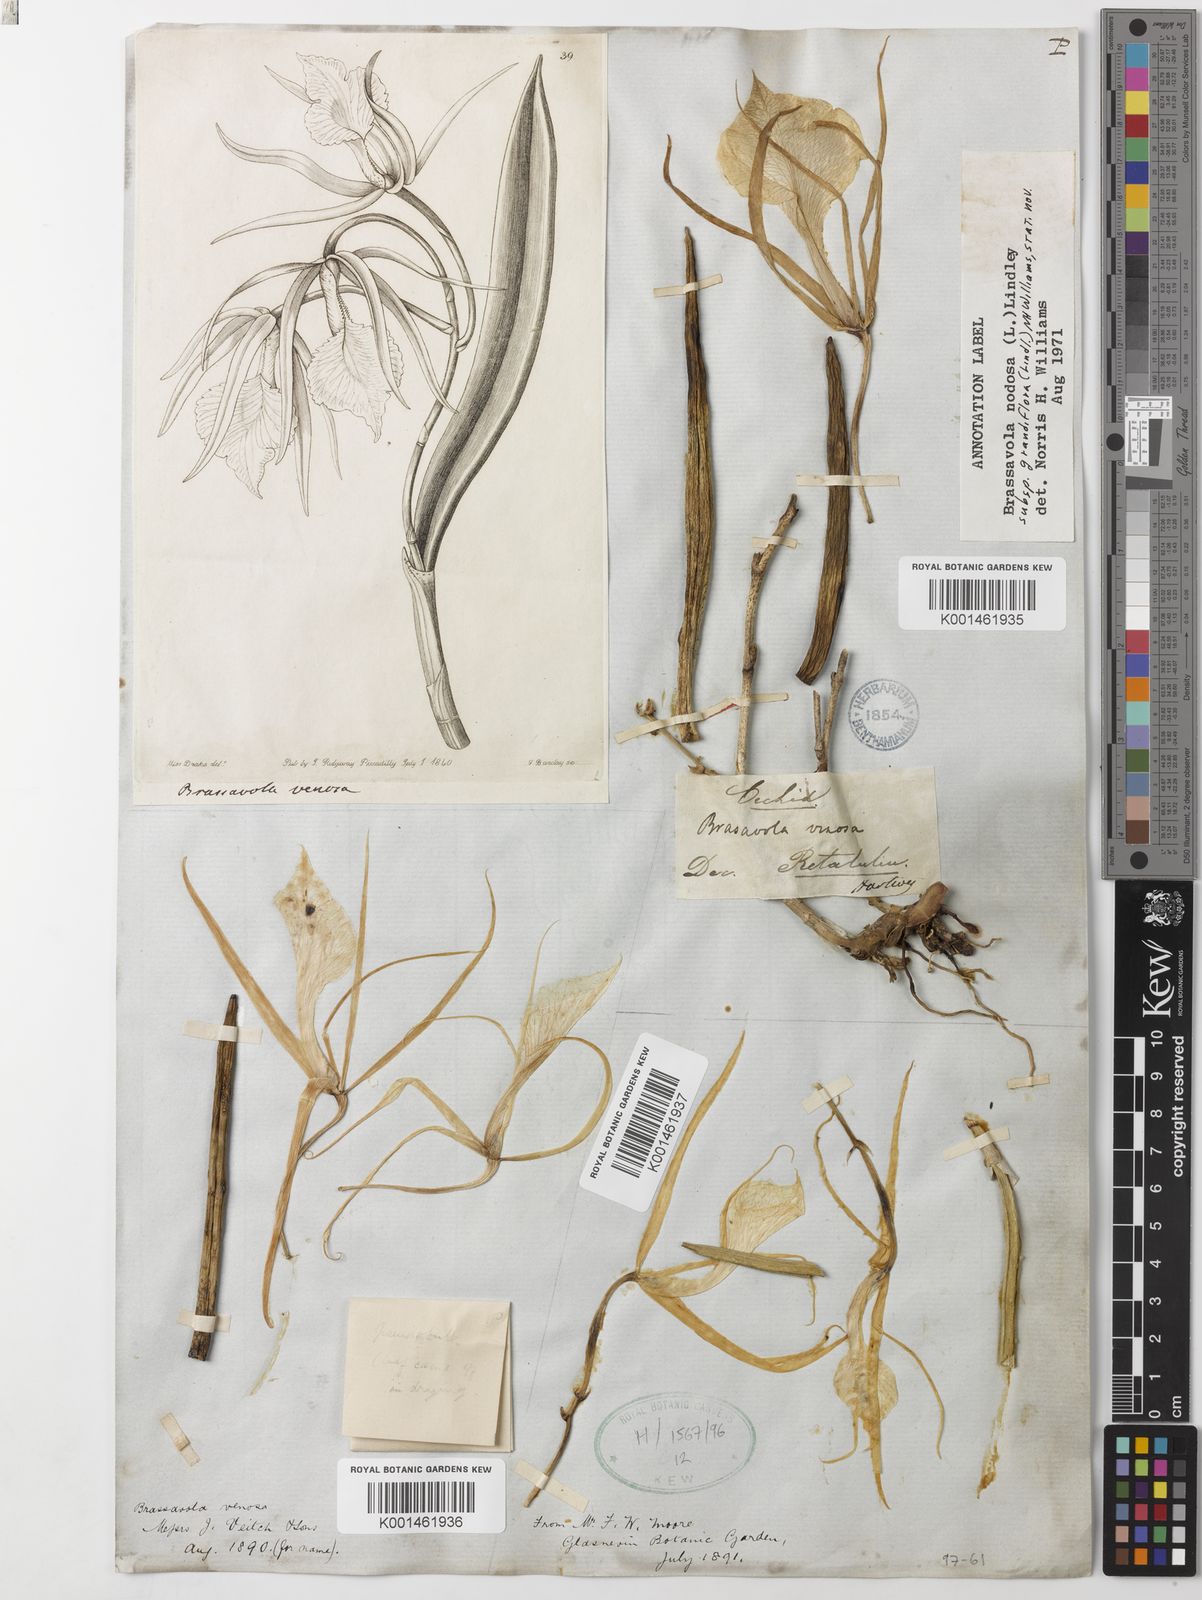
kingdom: Plantae
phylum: Tracheophyta
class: Liliopsida
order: Asparagales
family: Orchidaceae
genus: Brassavola
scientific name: Brassavola nodosa
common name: Lady of the night
